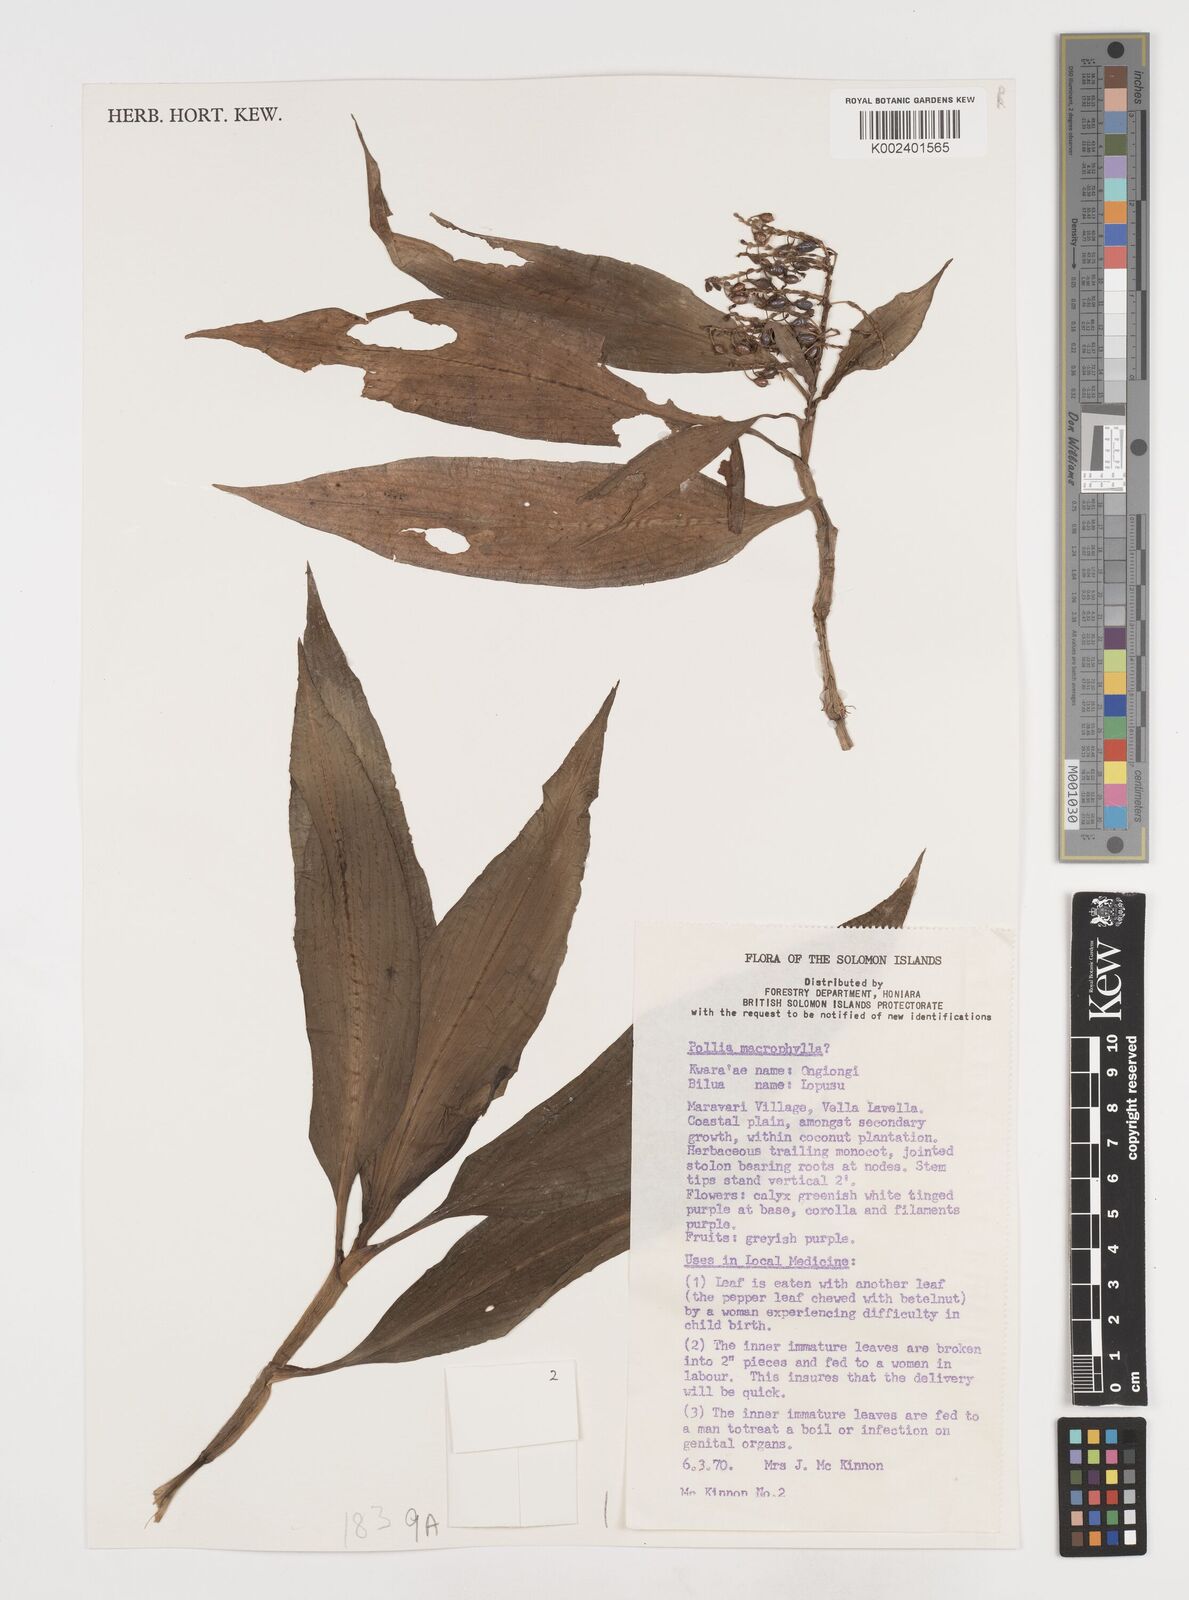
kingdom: Plantae
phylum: Tracheophyta
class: Liliopsida
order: Commelinales
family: Commelinaceae
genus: Pollia
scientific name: Pollia macrophylla
